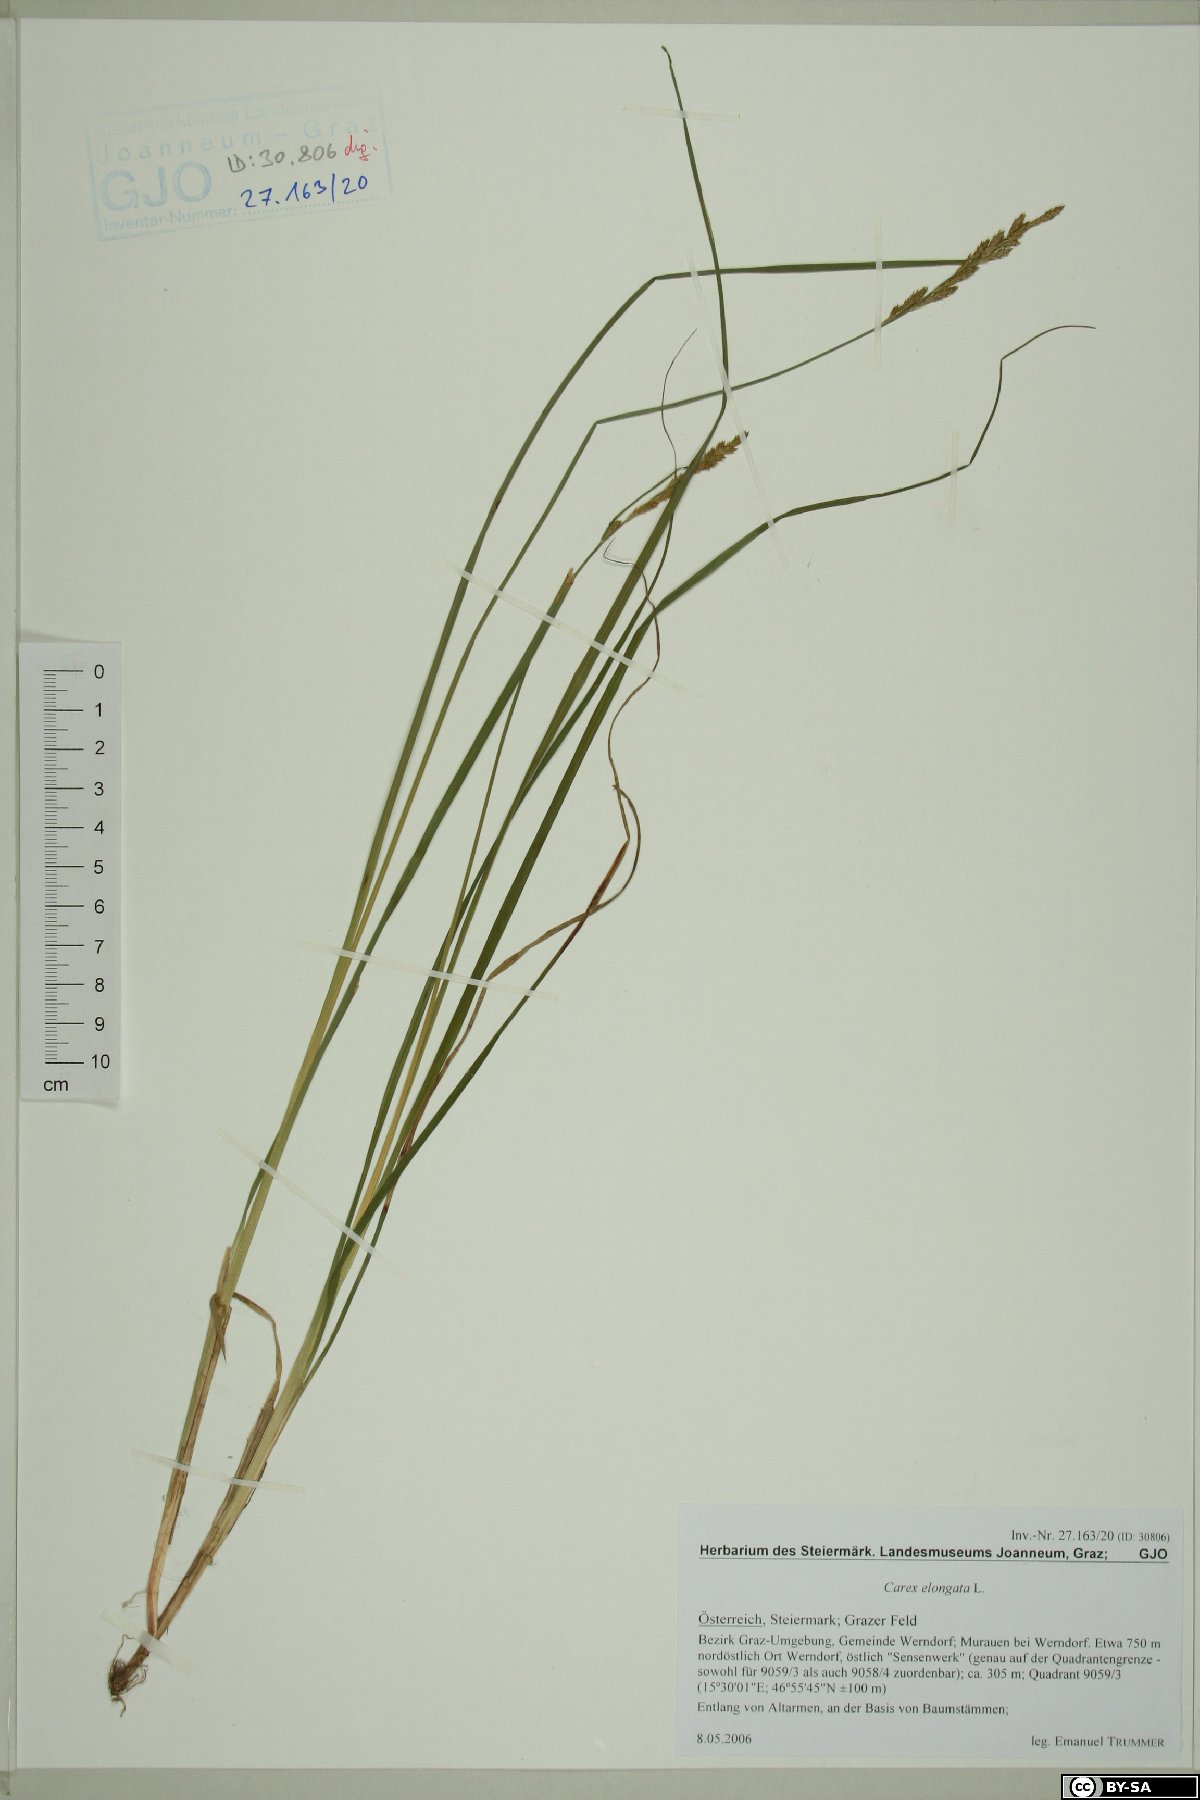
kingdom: Plantae
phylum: Tracheophyta
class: Liliopsida
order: Poales
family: Cyperaceae
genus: Carex
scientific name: Carex elongata
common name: Elongated sedge
